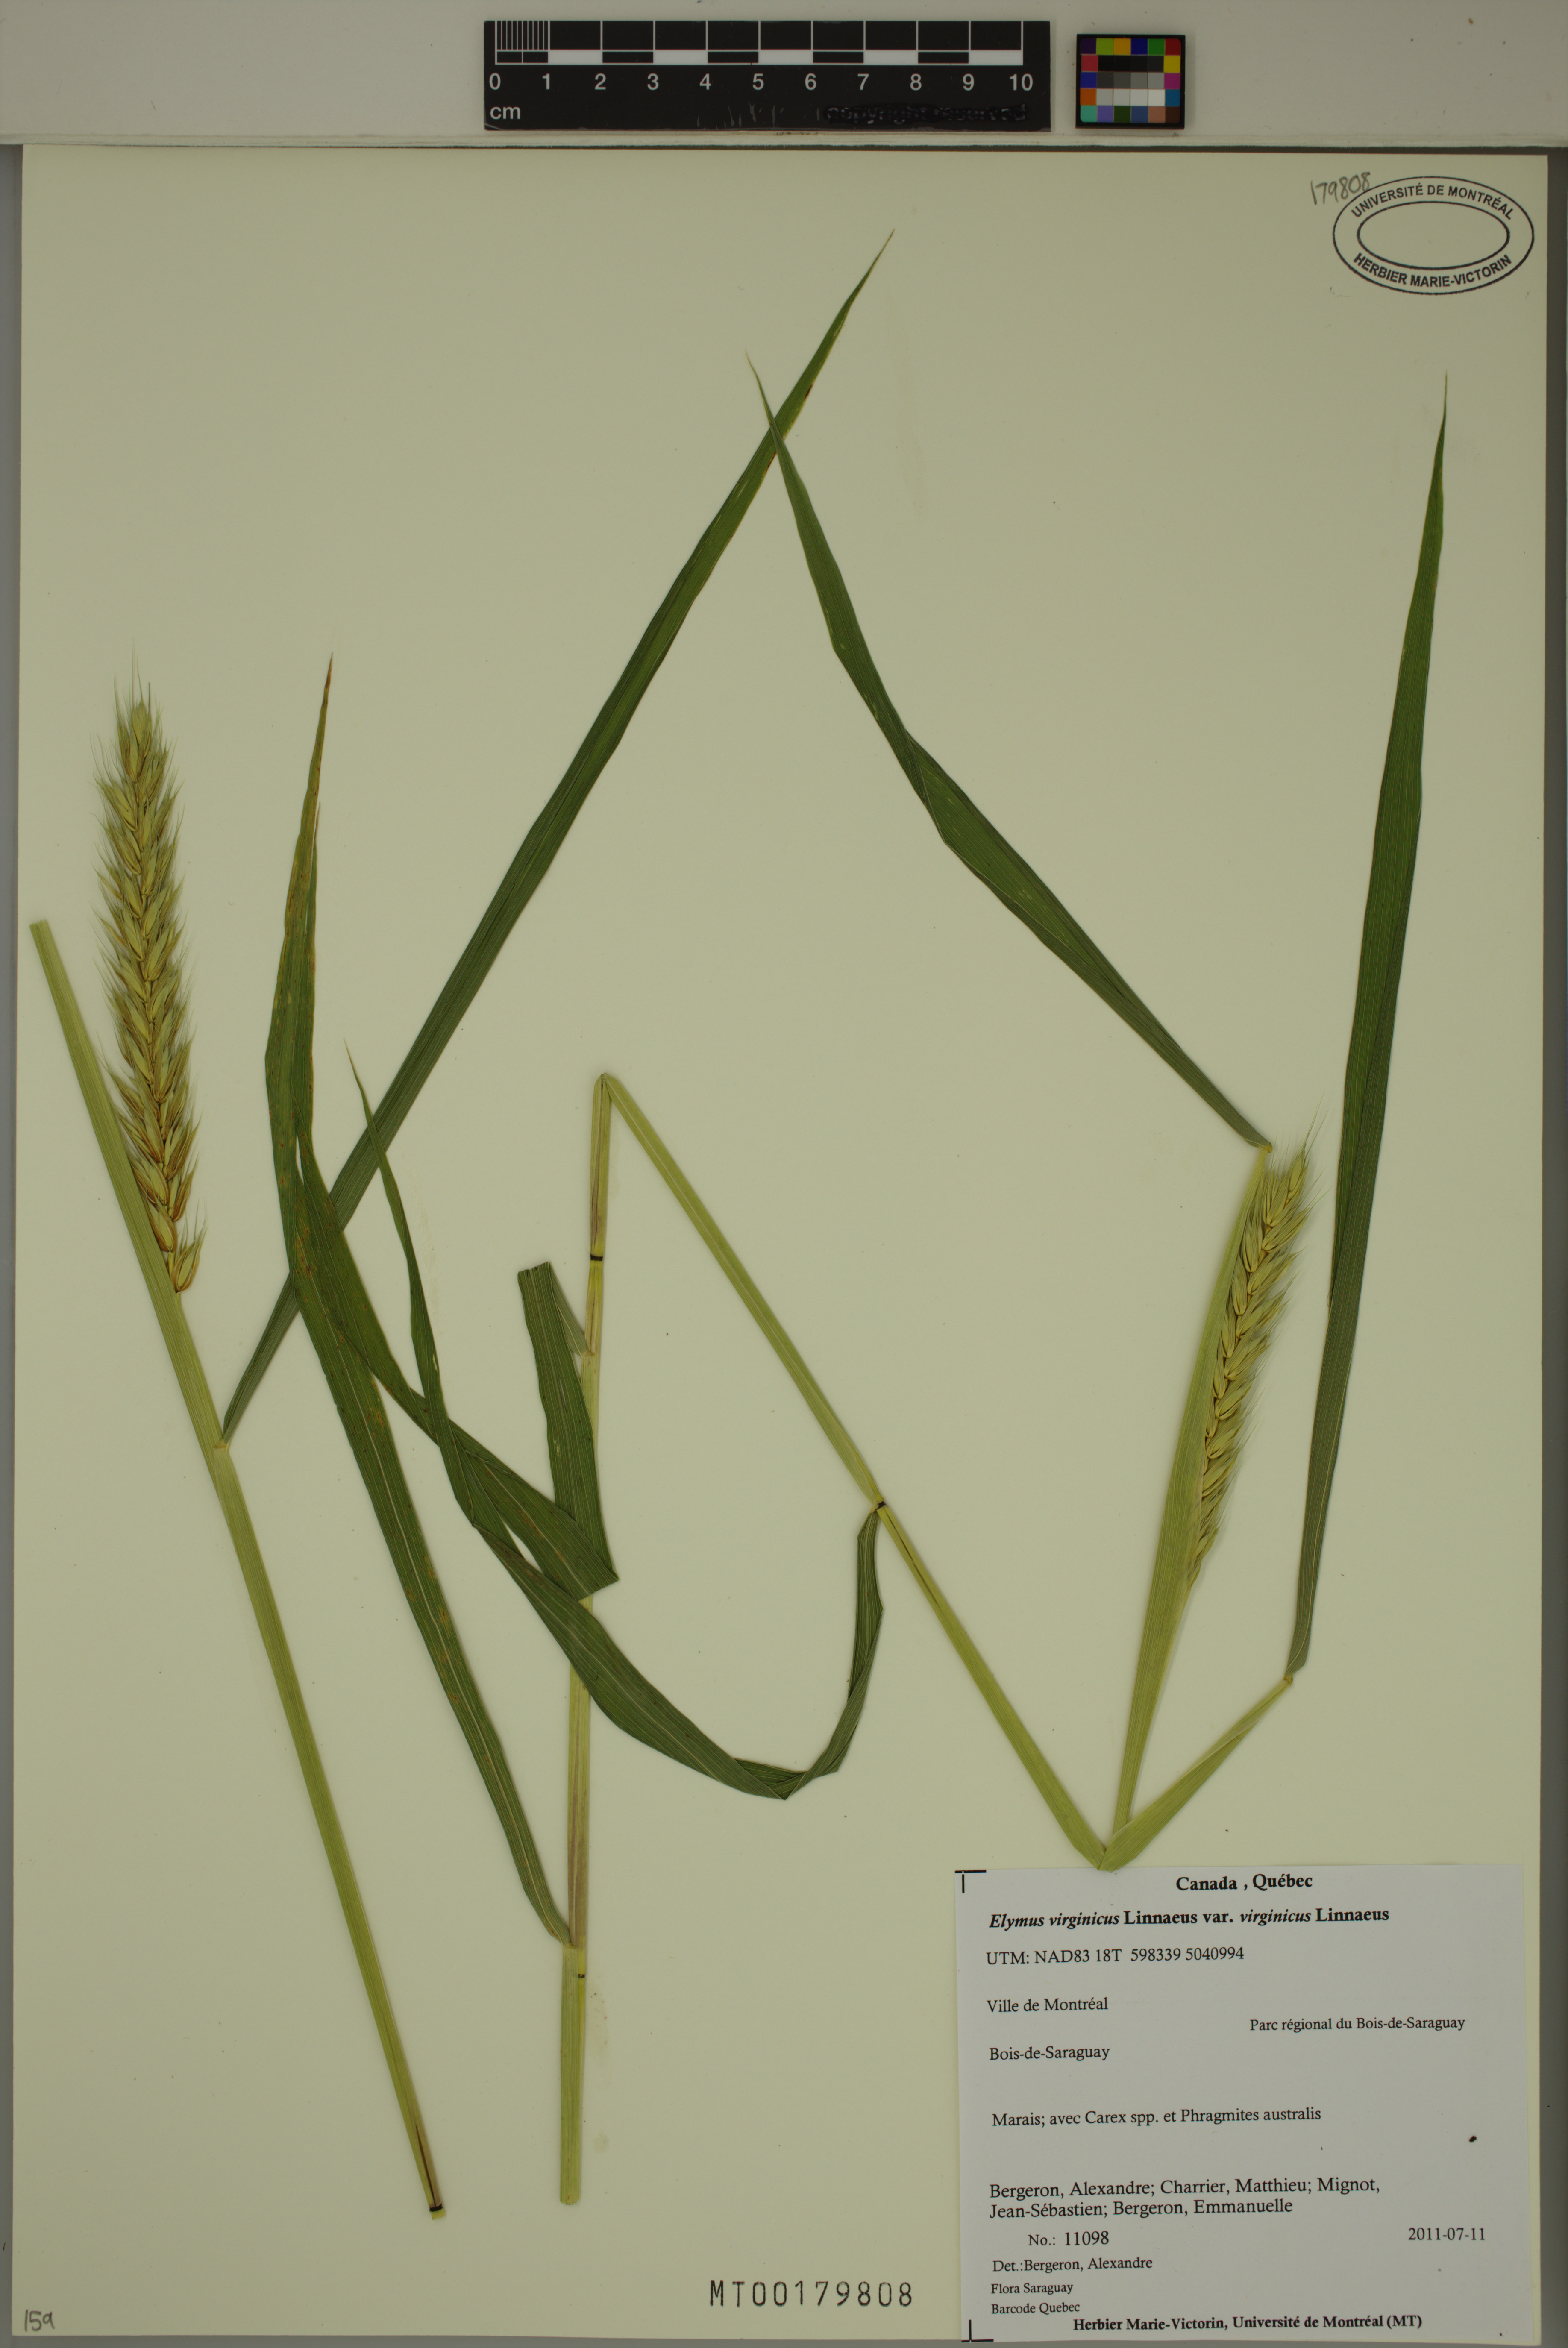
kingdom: Plantae
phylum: Tracheophyta
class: Liliopsida
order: Poales
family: Poaceae
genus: Elymus
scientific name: Elymus virginicus
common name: Common eastern wildrye
